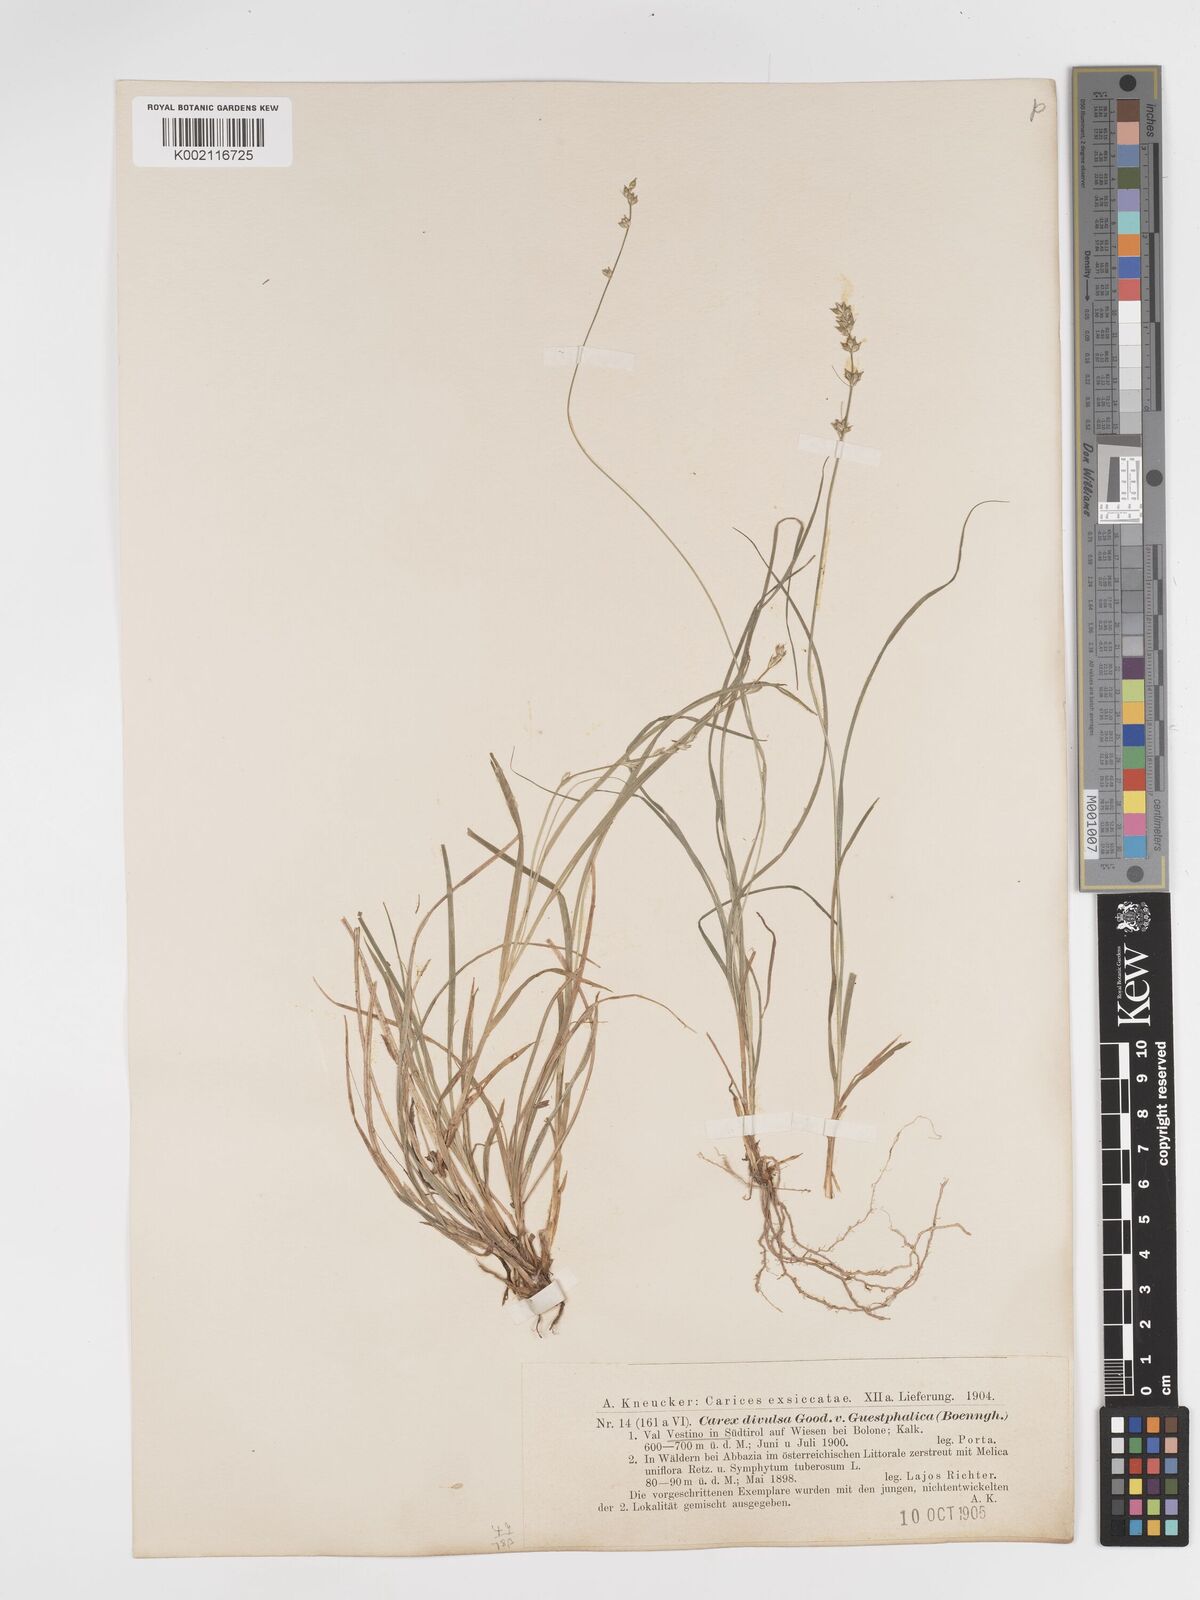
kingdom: Plantae
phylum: Tracheophyta
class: Liliopsida
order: Poales
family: Cyperaceae
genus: Carex
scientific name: Carex divulsa
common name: Grassland sedge
